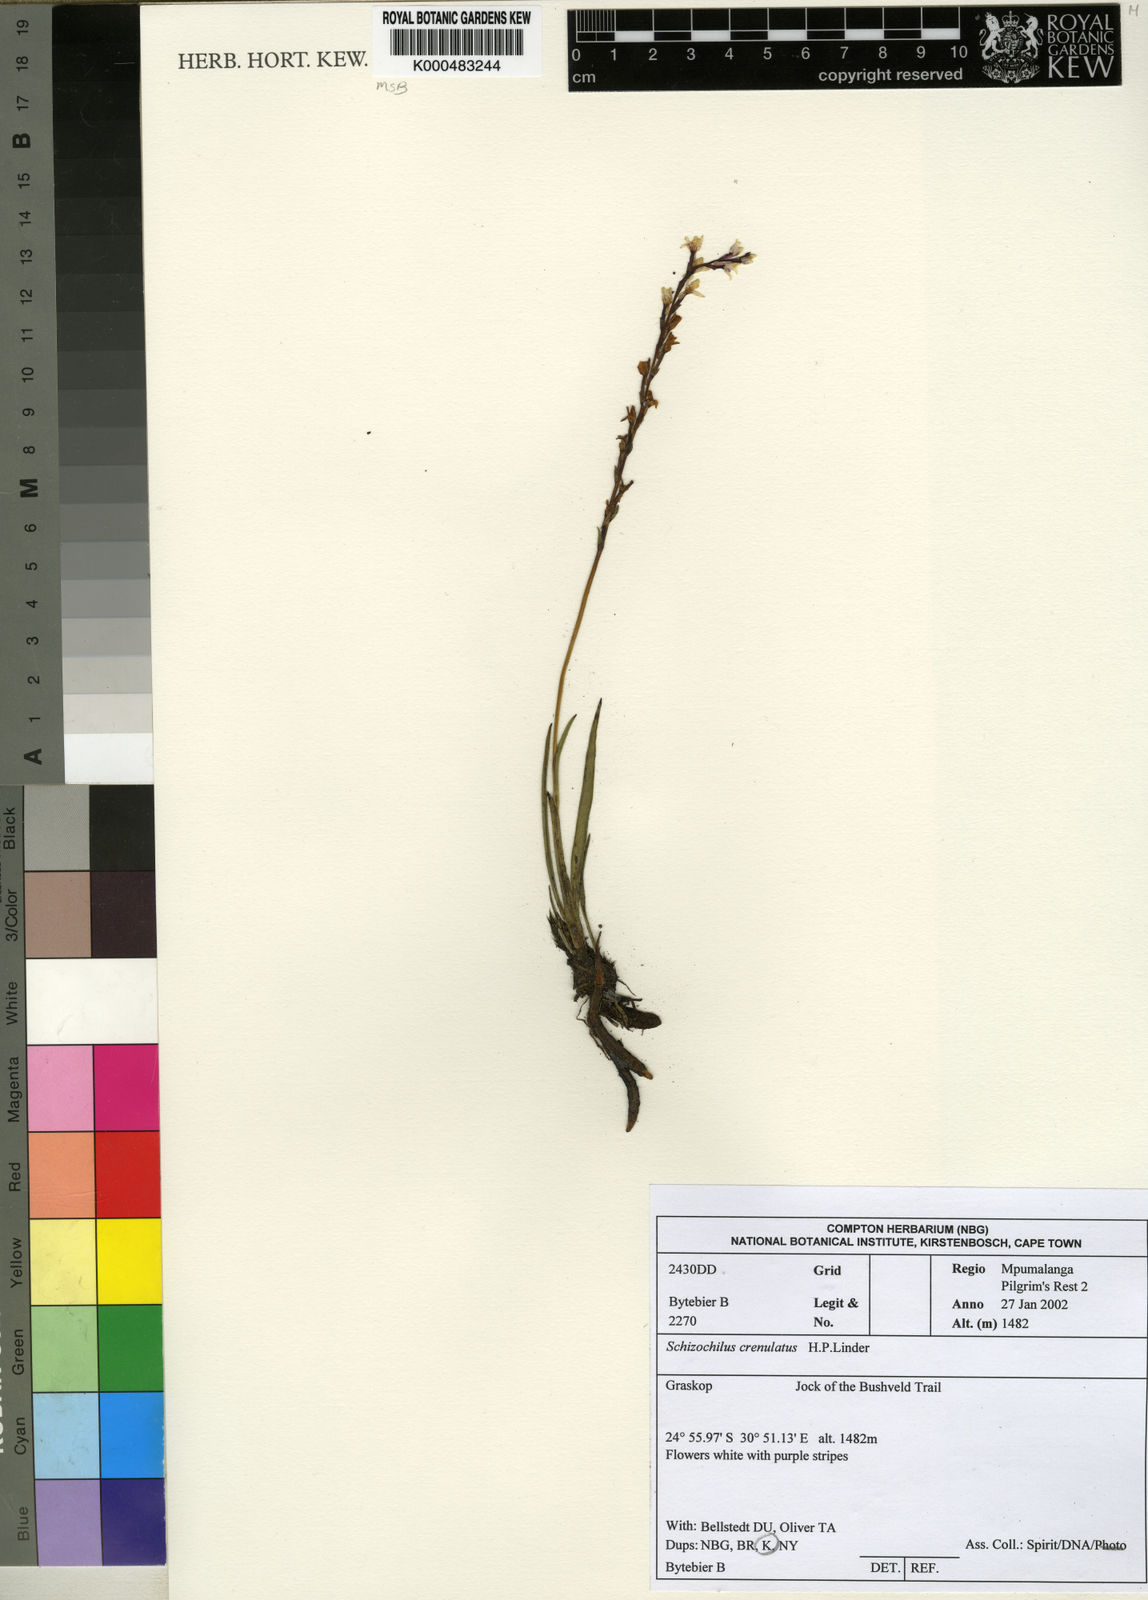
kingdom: Plantae
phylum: Tracheophyta
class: Liliopsida
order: Asparagales
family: Orchidaceae
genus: Schizochilus
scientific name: Schizochilus crenulatus
